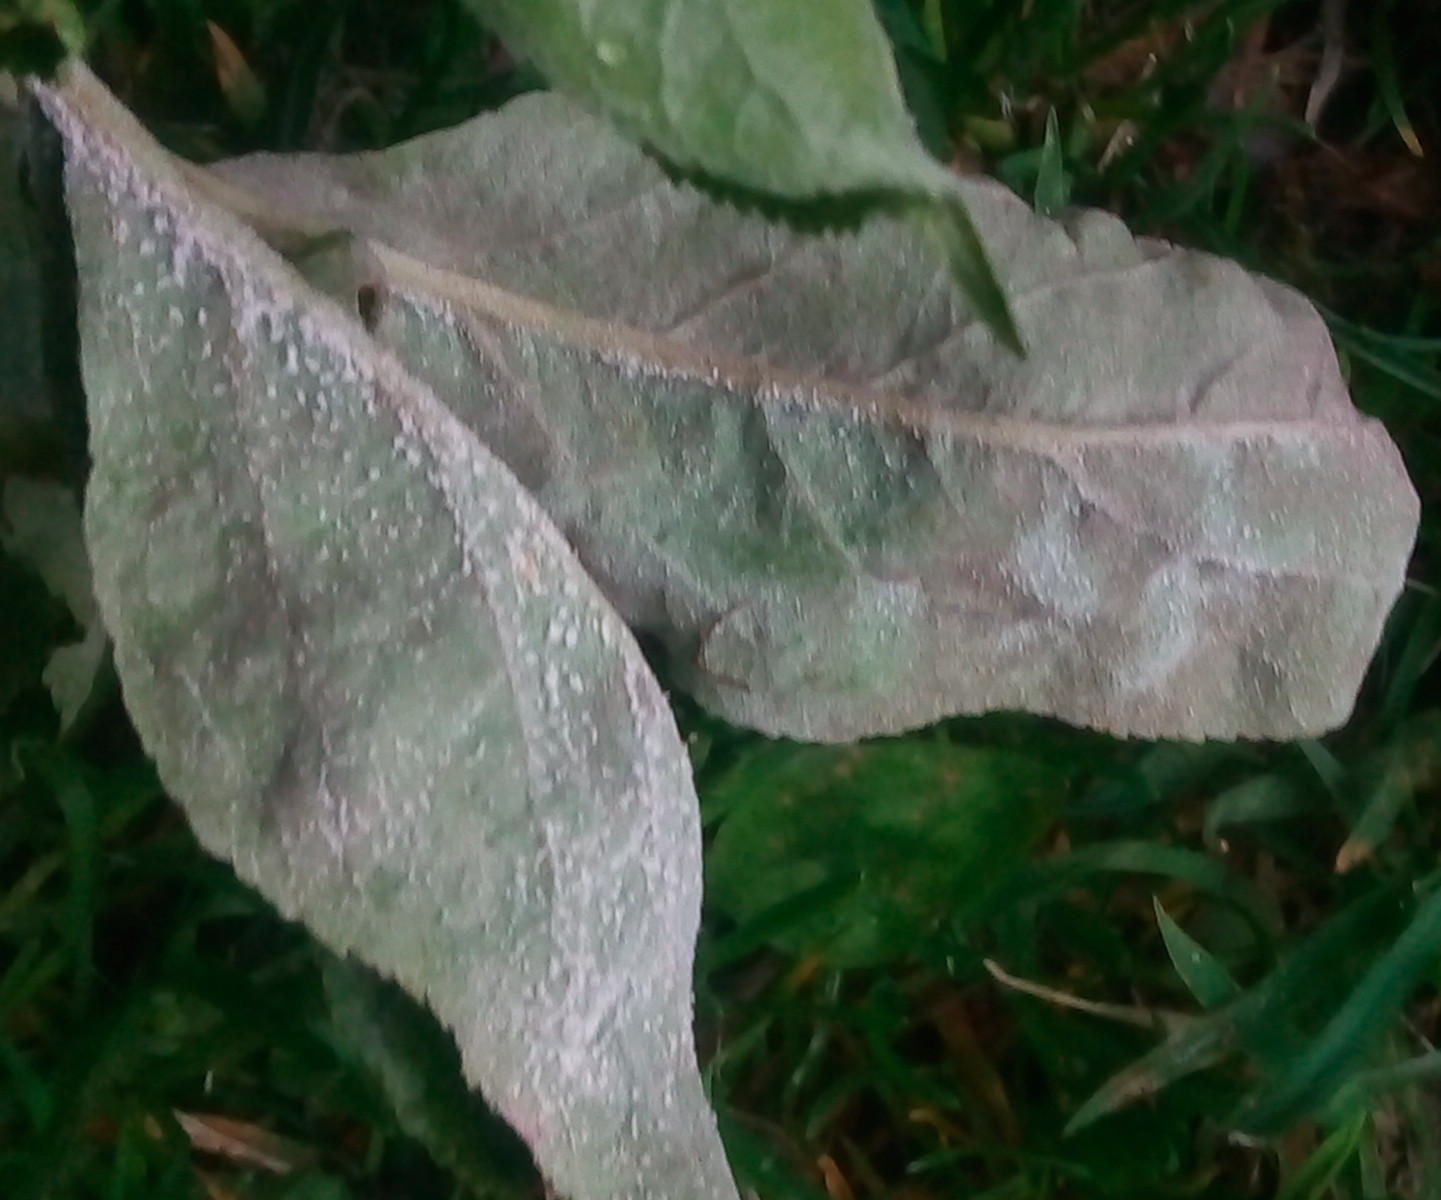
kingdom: Fungi
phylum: Ascomycota
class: Leotiomycetes
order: Helotiales
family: Erysiphaceae
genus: Podosphaera
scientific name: Podosphaera leucotricha
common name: æble-meldug
